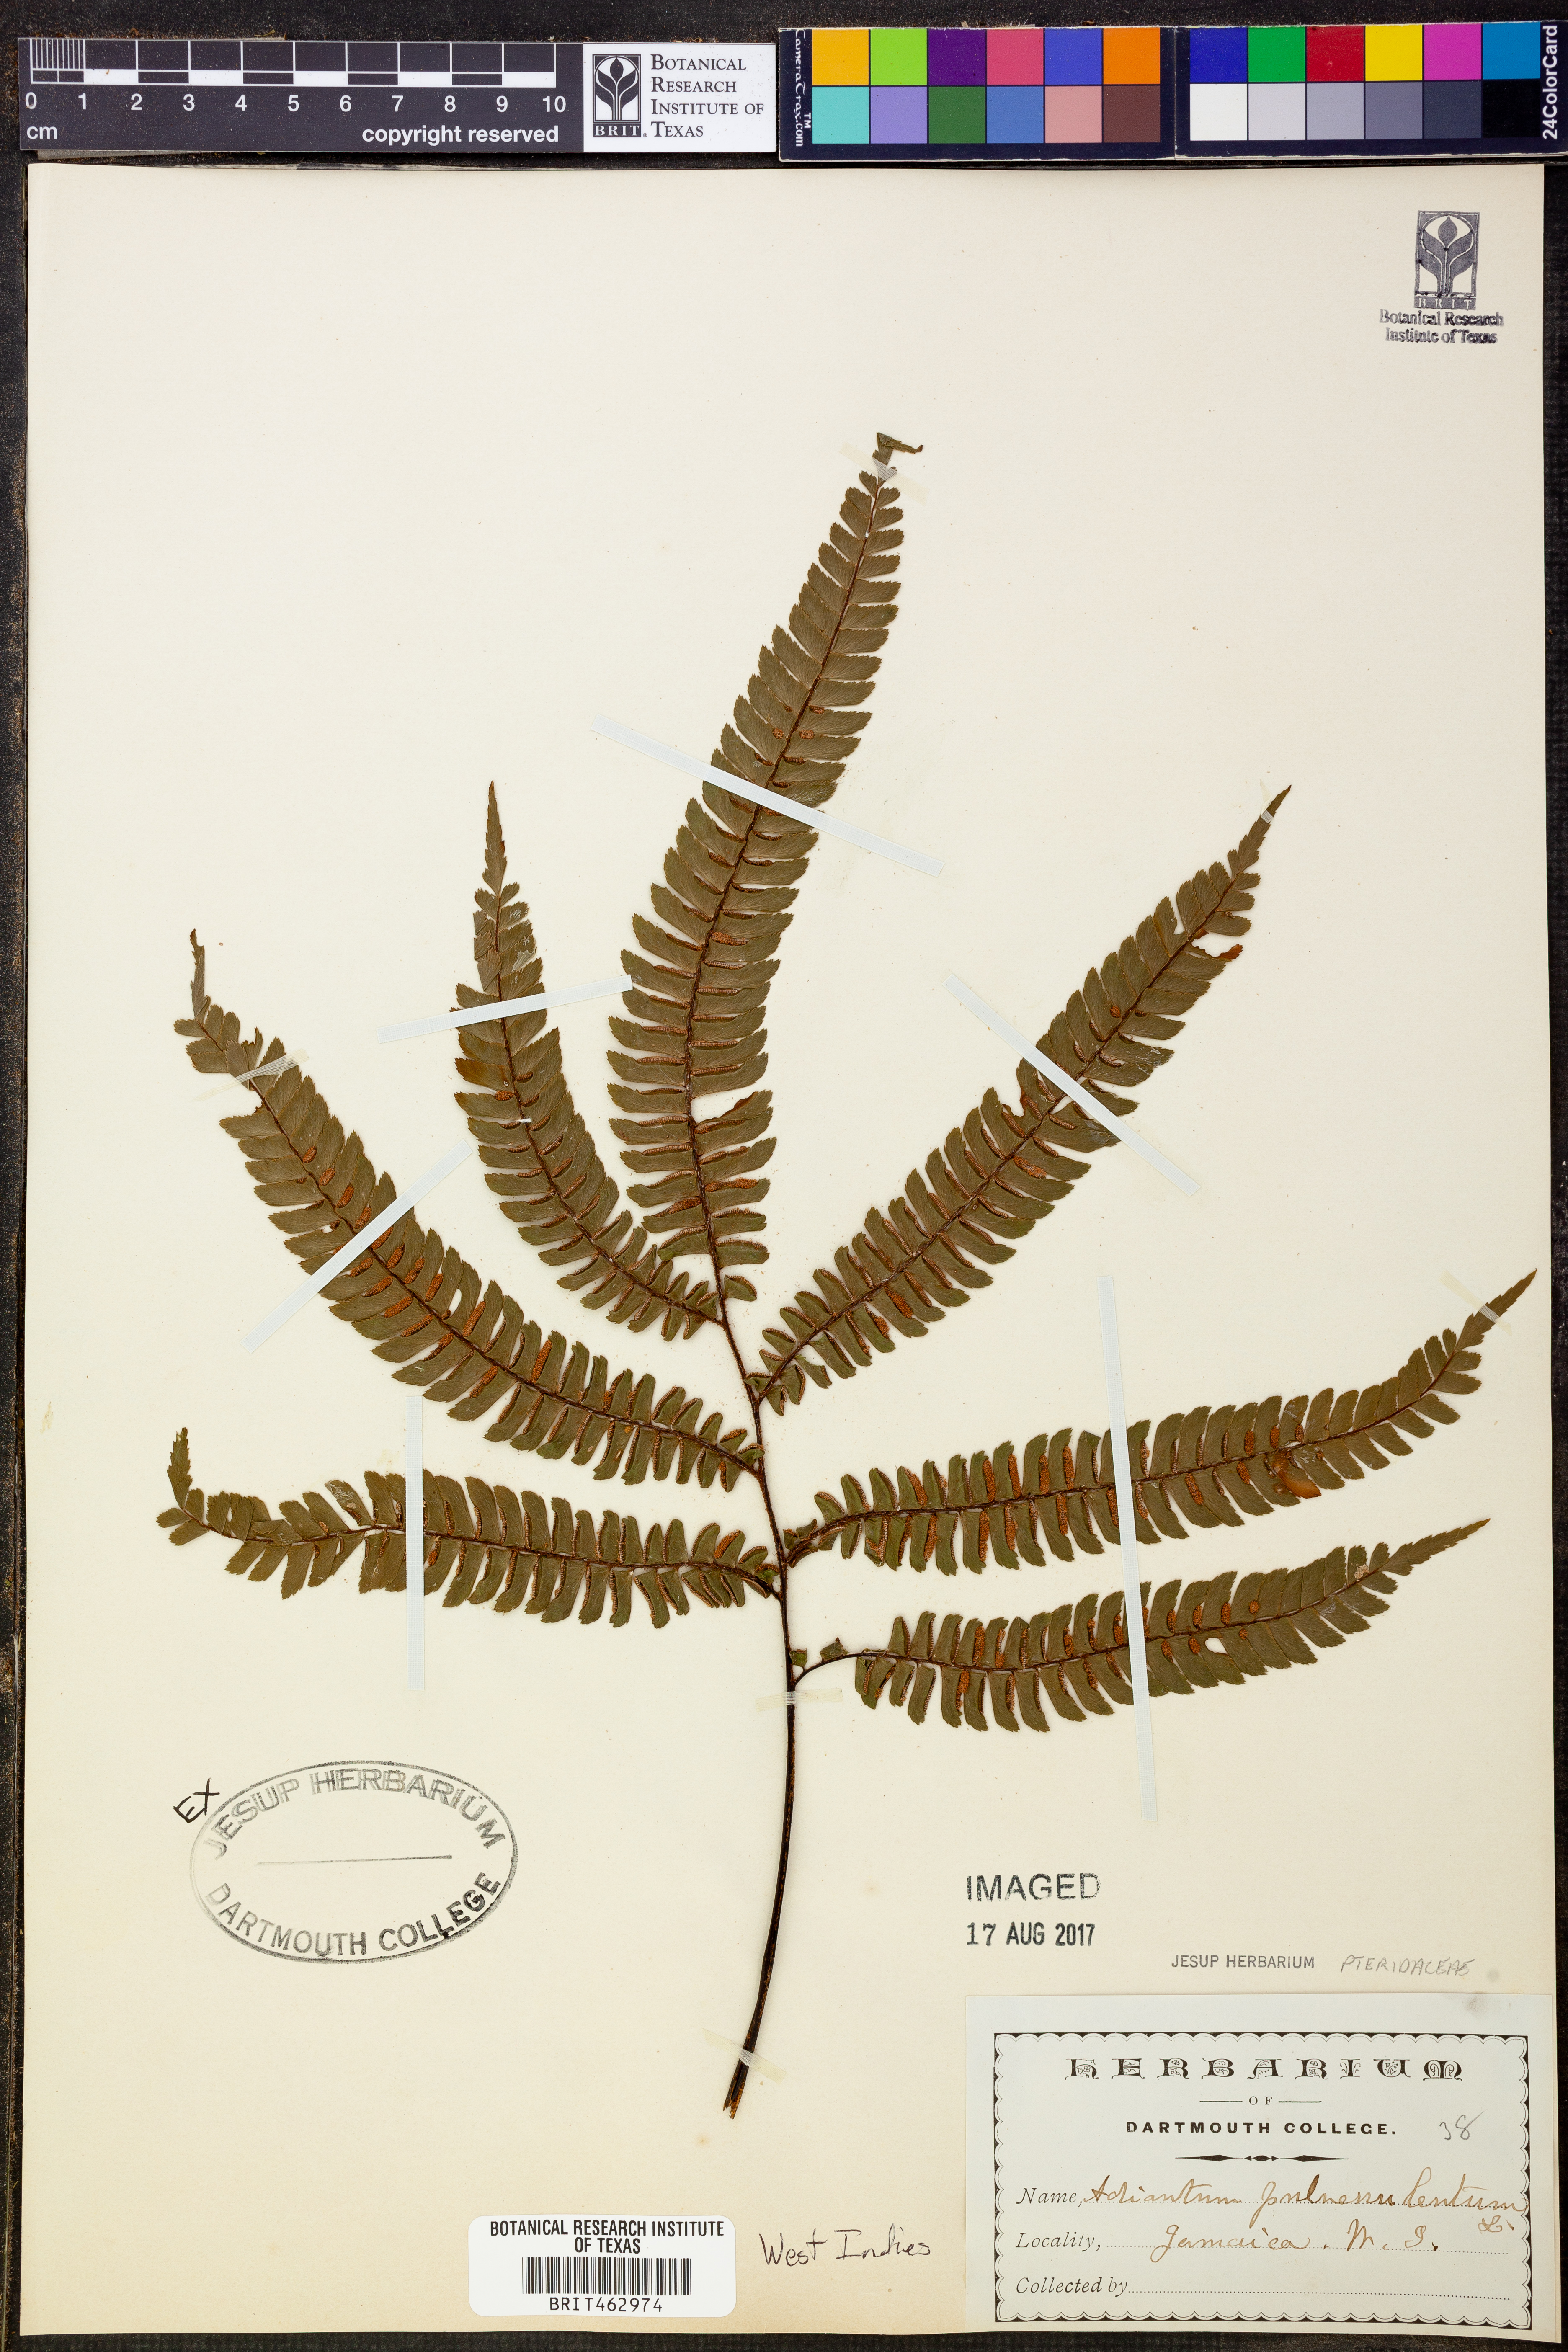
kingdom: Plantae
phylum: Tracheophyta
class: Polypodiopsida
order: Polypodiales
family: Pteridaceae
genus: Adiantum
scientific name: Adiantum pulverulentum
